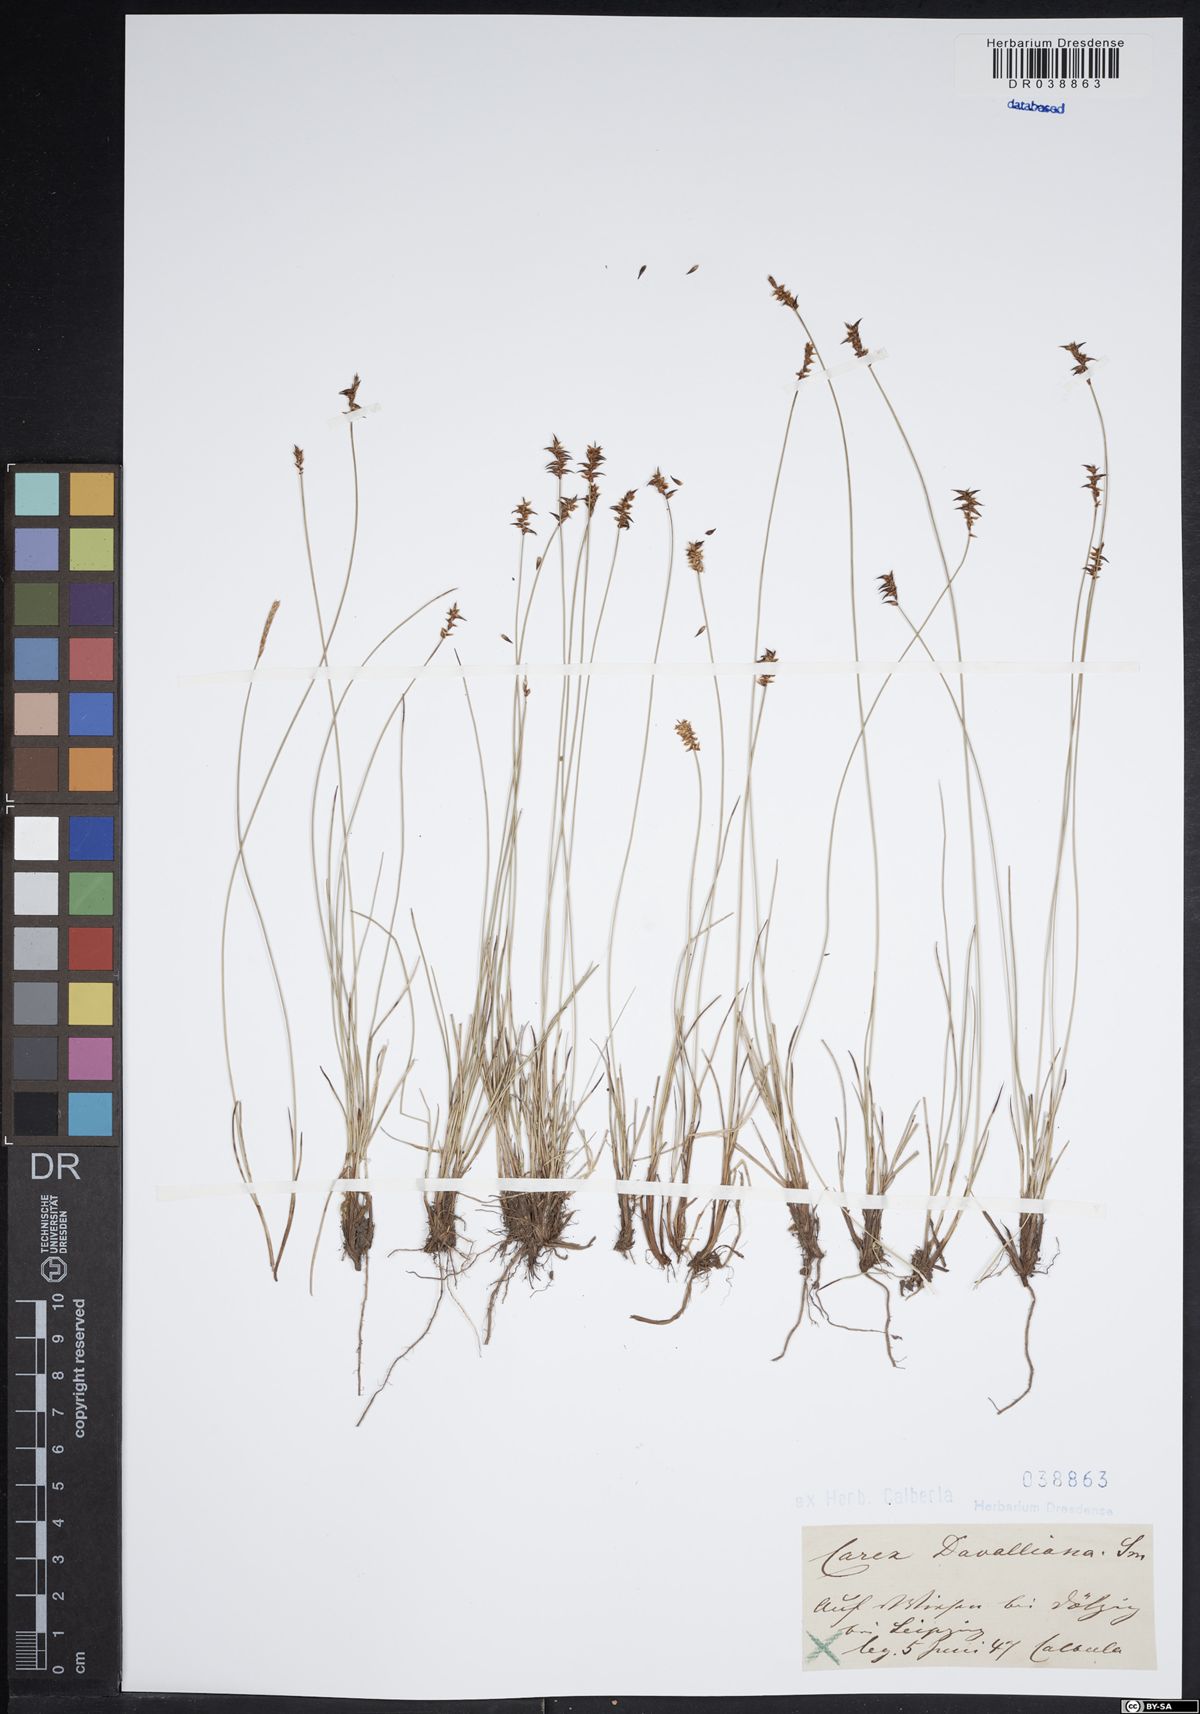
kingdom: Plantae
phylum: Tracheophyta
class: Liliopsida
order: Poales
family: Cyperaceae
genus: Carex
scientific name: Carex davalliana
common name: Davall's sedge
